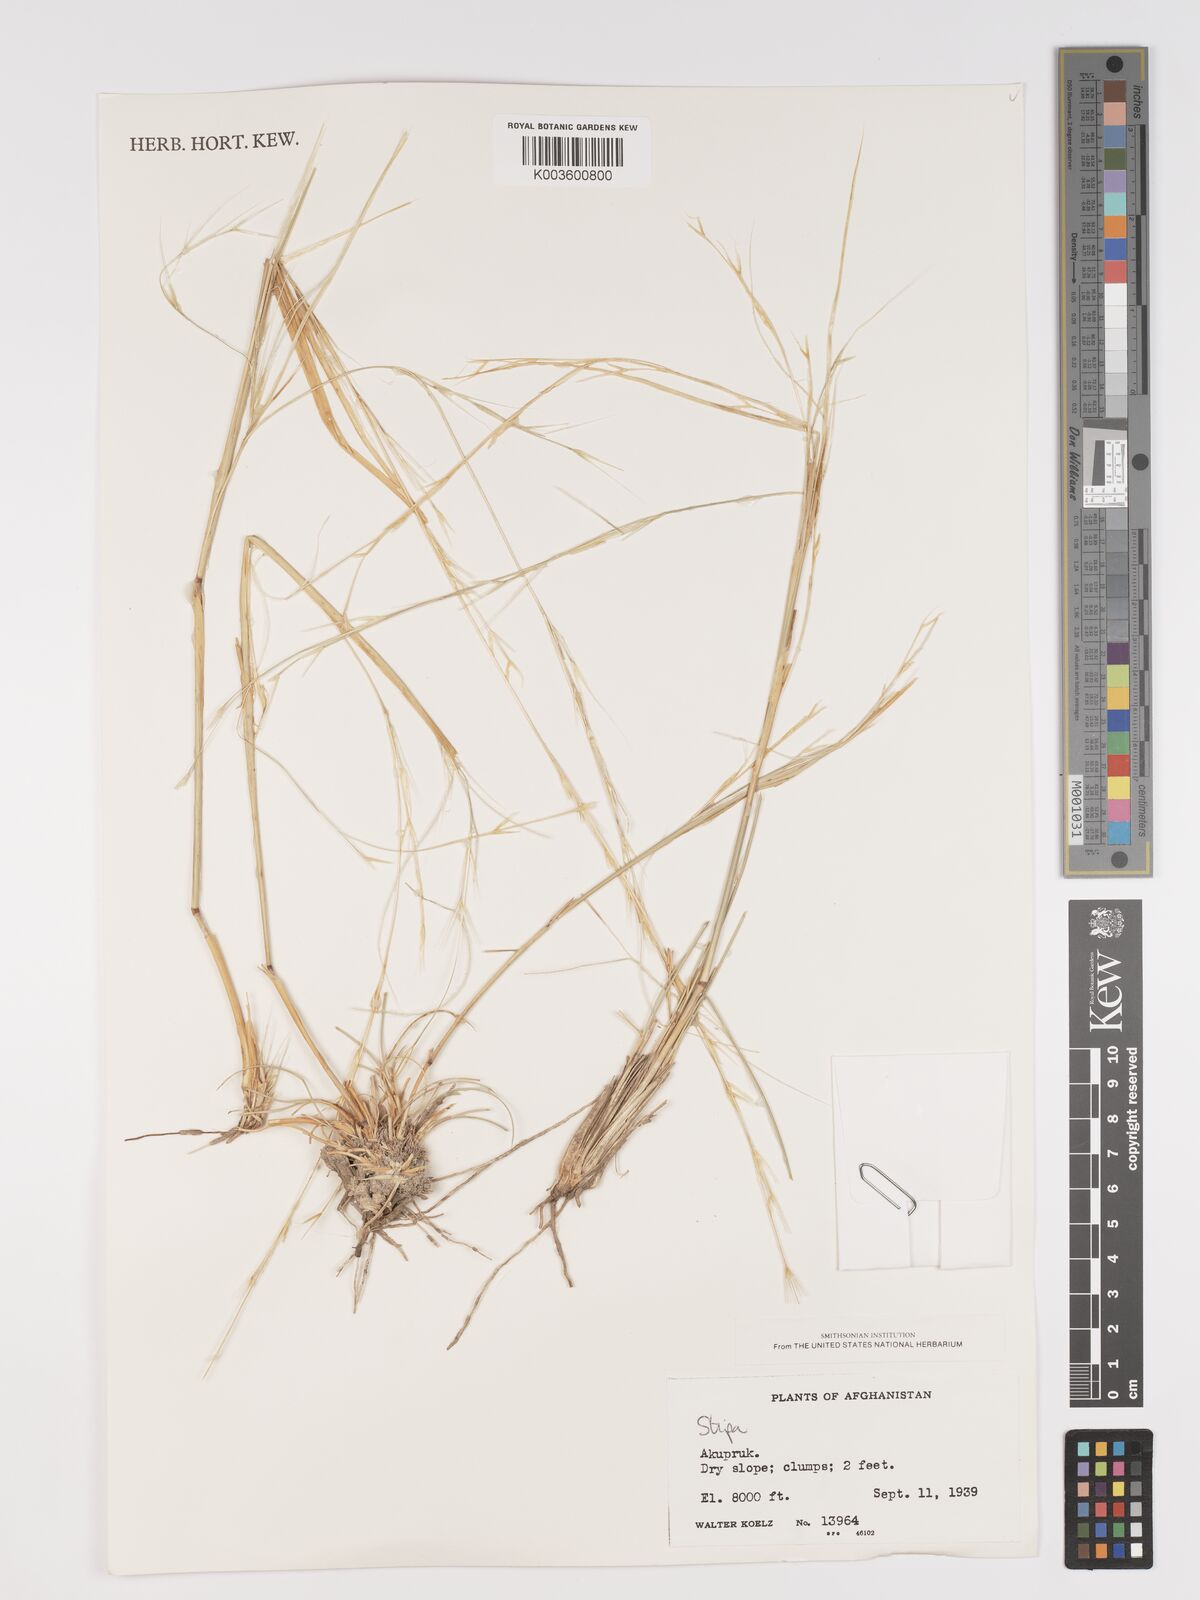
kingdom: Plantae
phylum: Tracheophyta
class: Liliopsida
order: Poales
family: Poaceae
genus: Stipa
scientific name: Stipa
